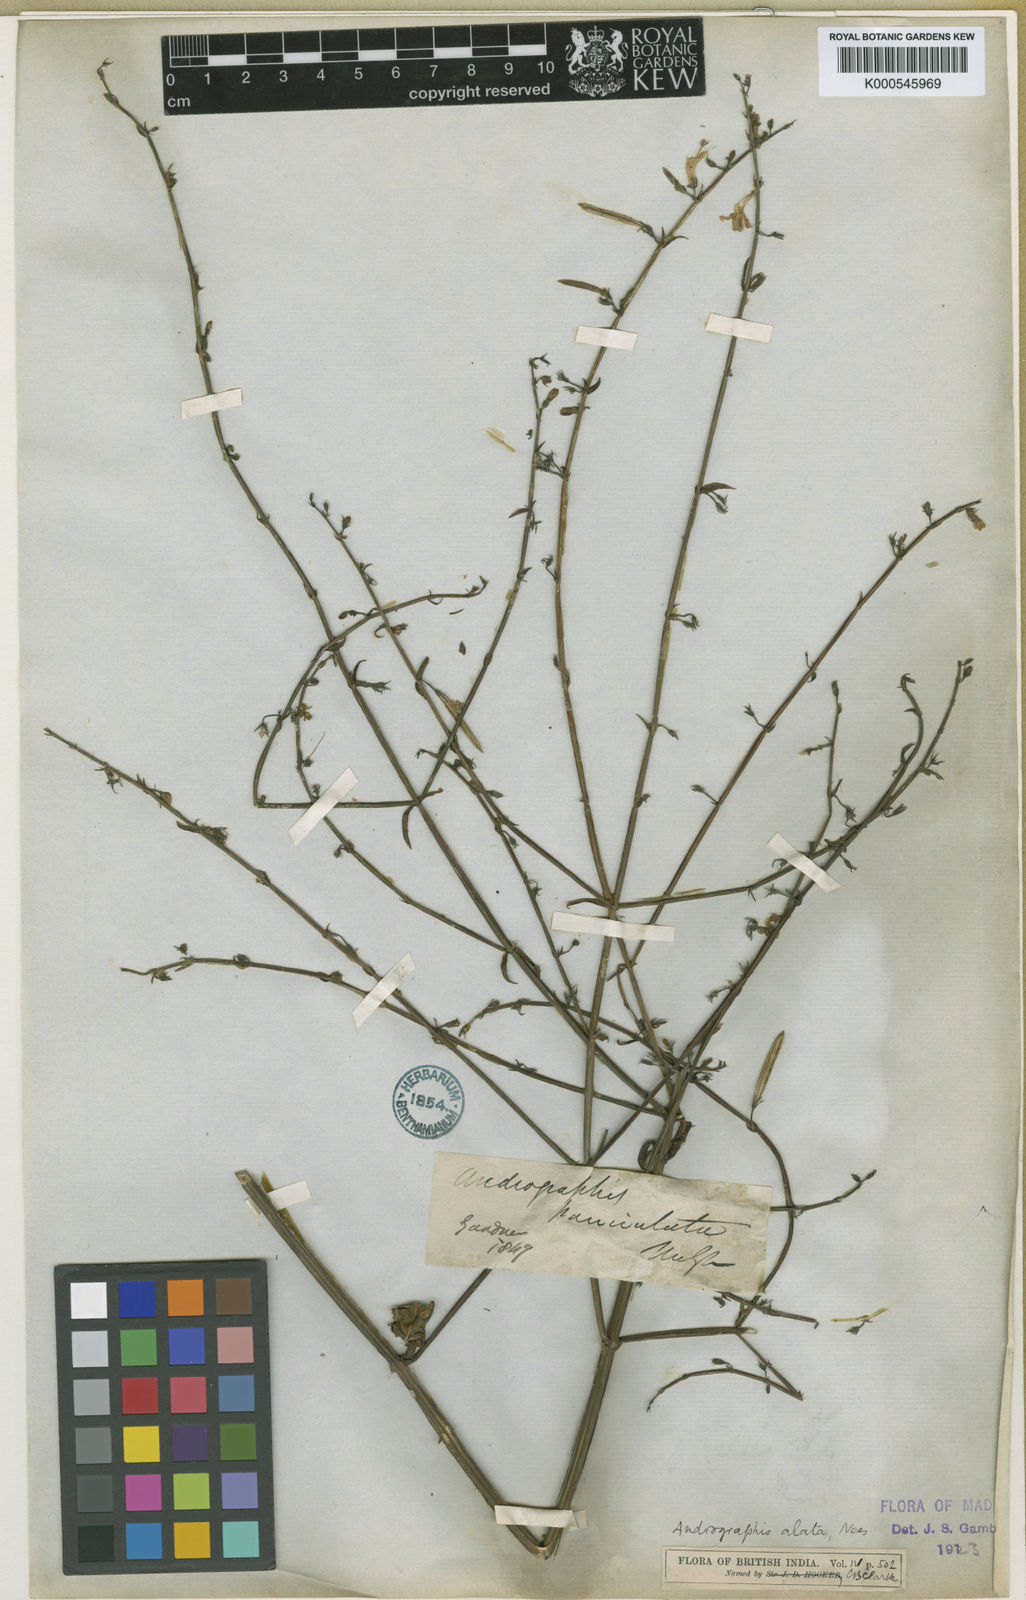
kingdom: Plantae
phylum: Tracheophyta
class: Magnoliopsida
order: Lamiales
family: Acanthaceae
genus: Andrographis
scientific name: Andrographis alata
